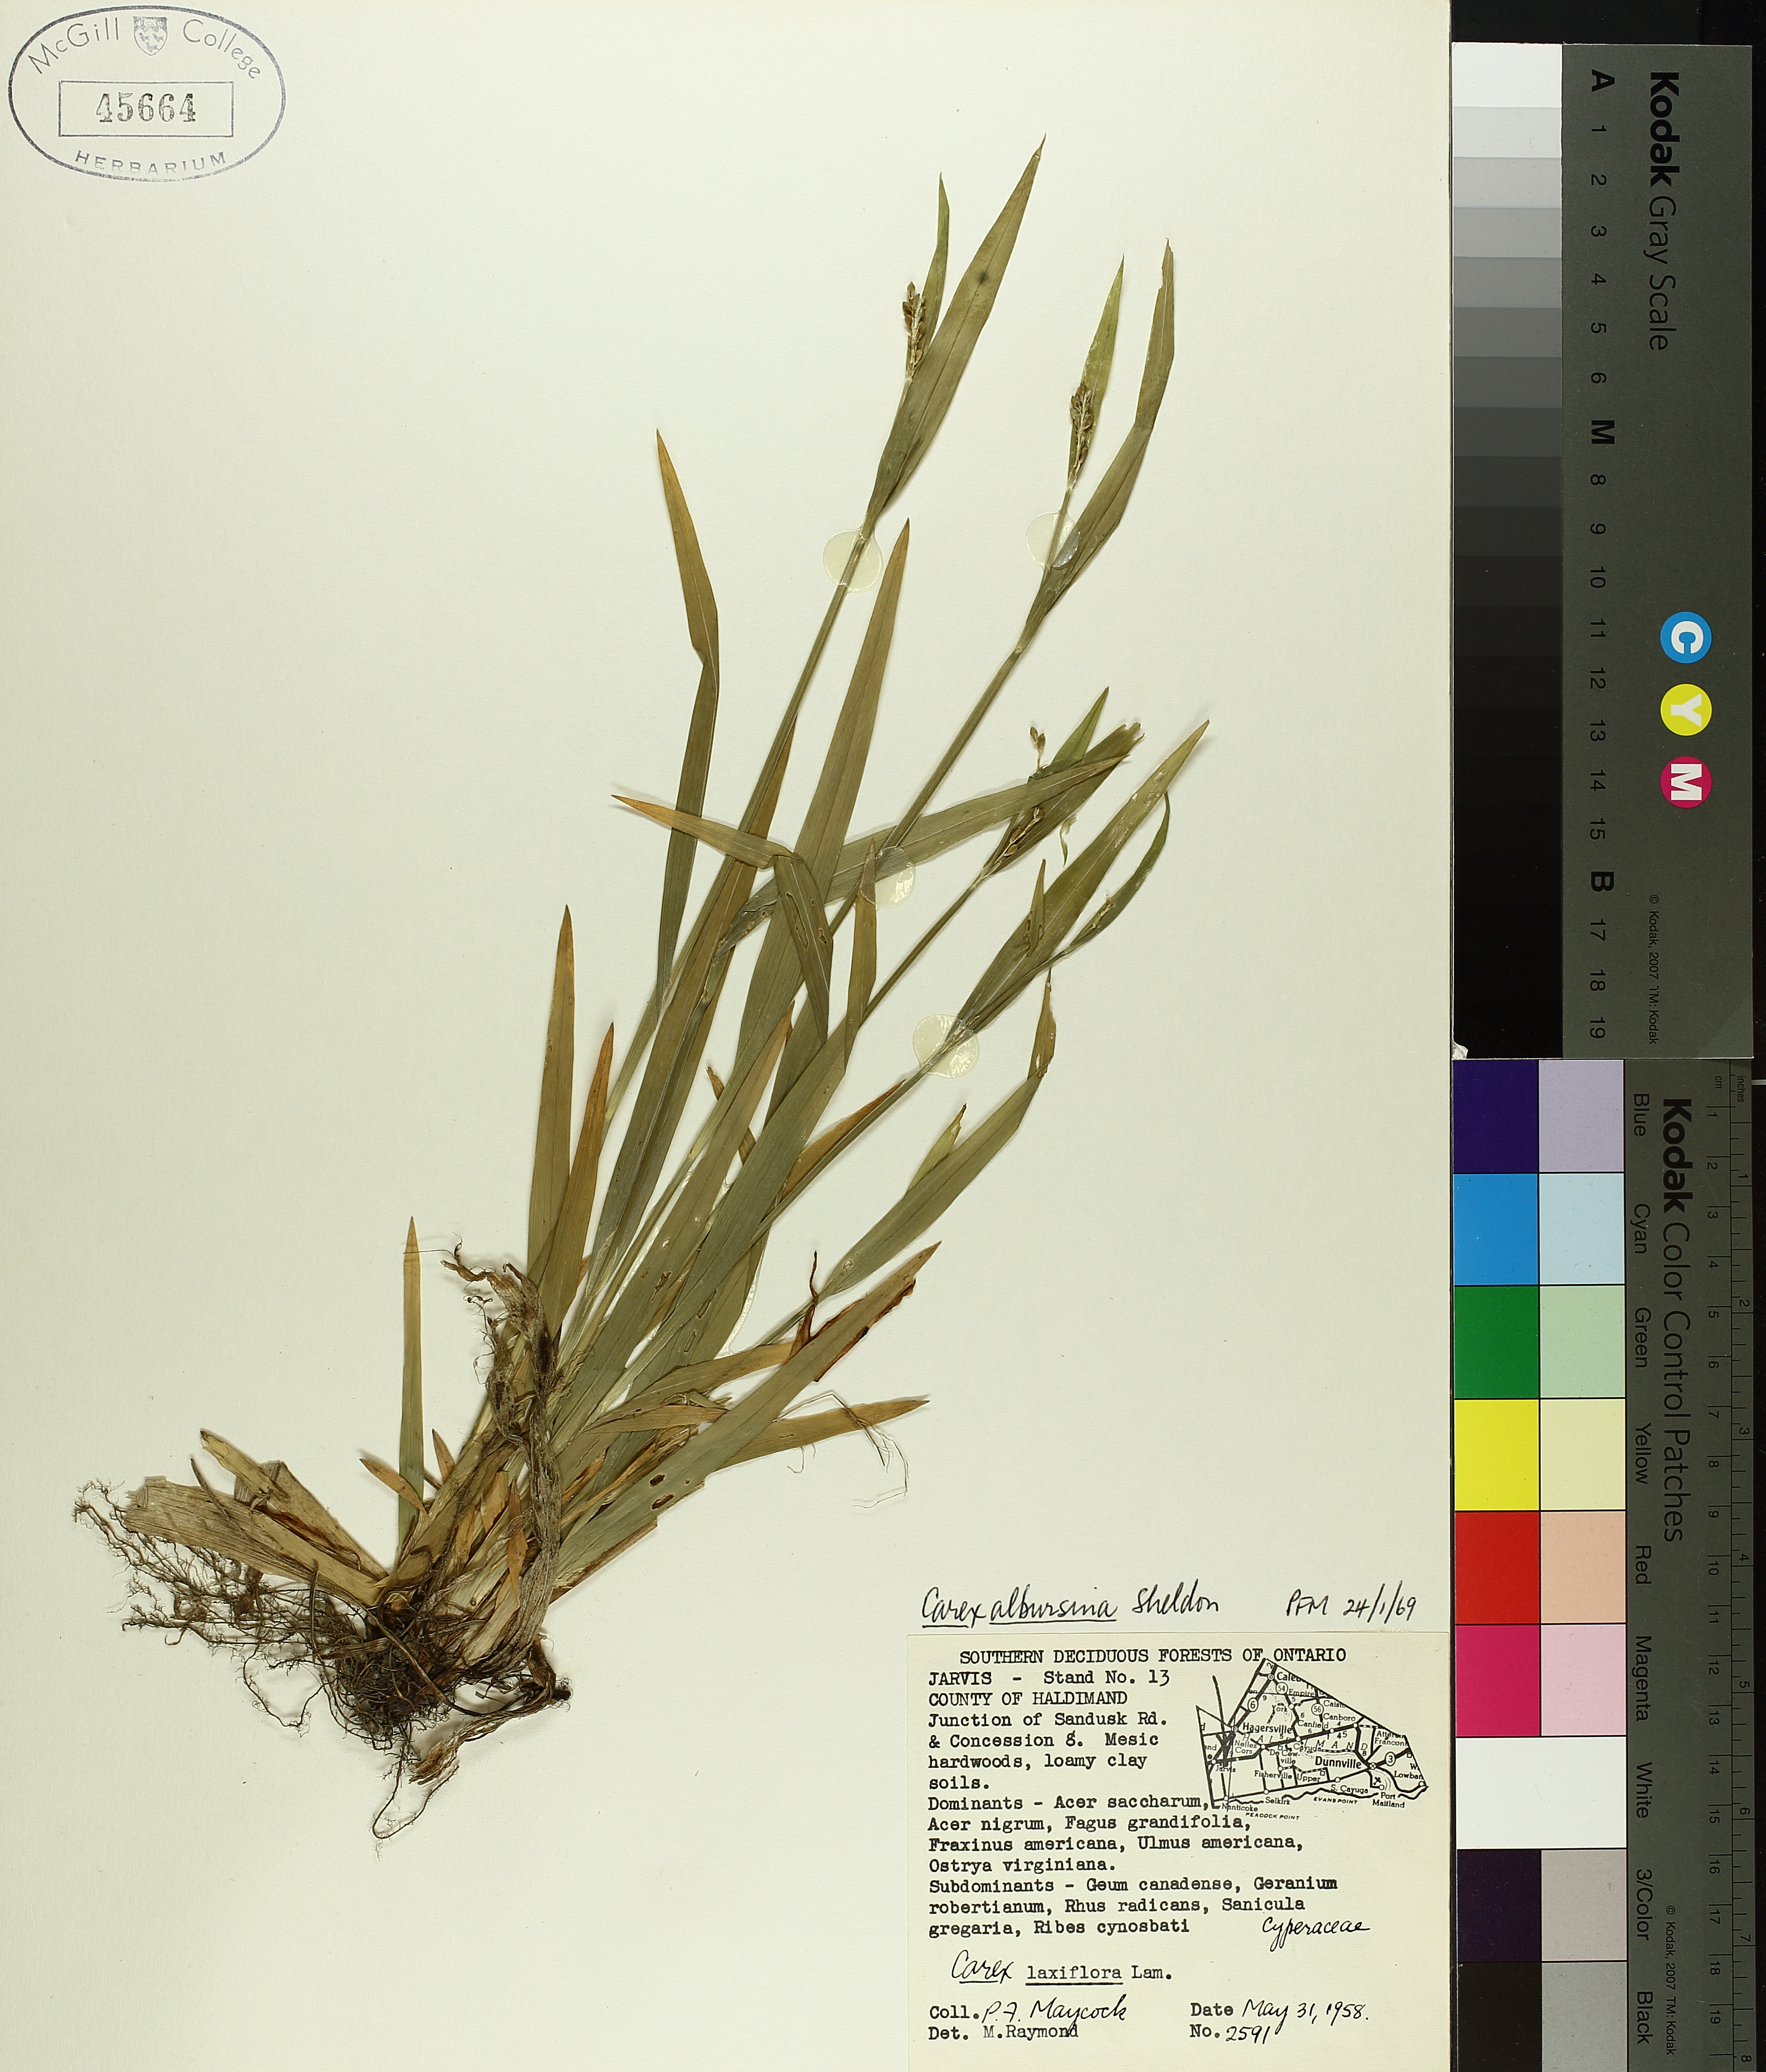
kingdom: Plantae
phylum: Tracheophyta
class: Liliopsida
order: Poales
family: Cyperaceae
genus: Carex
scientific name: Carex albursina
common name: Blunt-scale wood sedge
